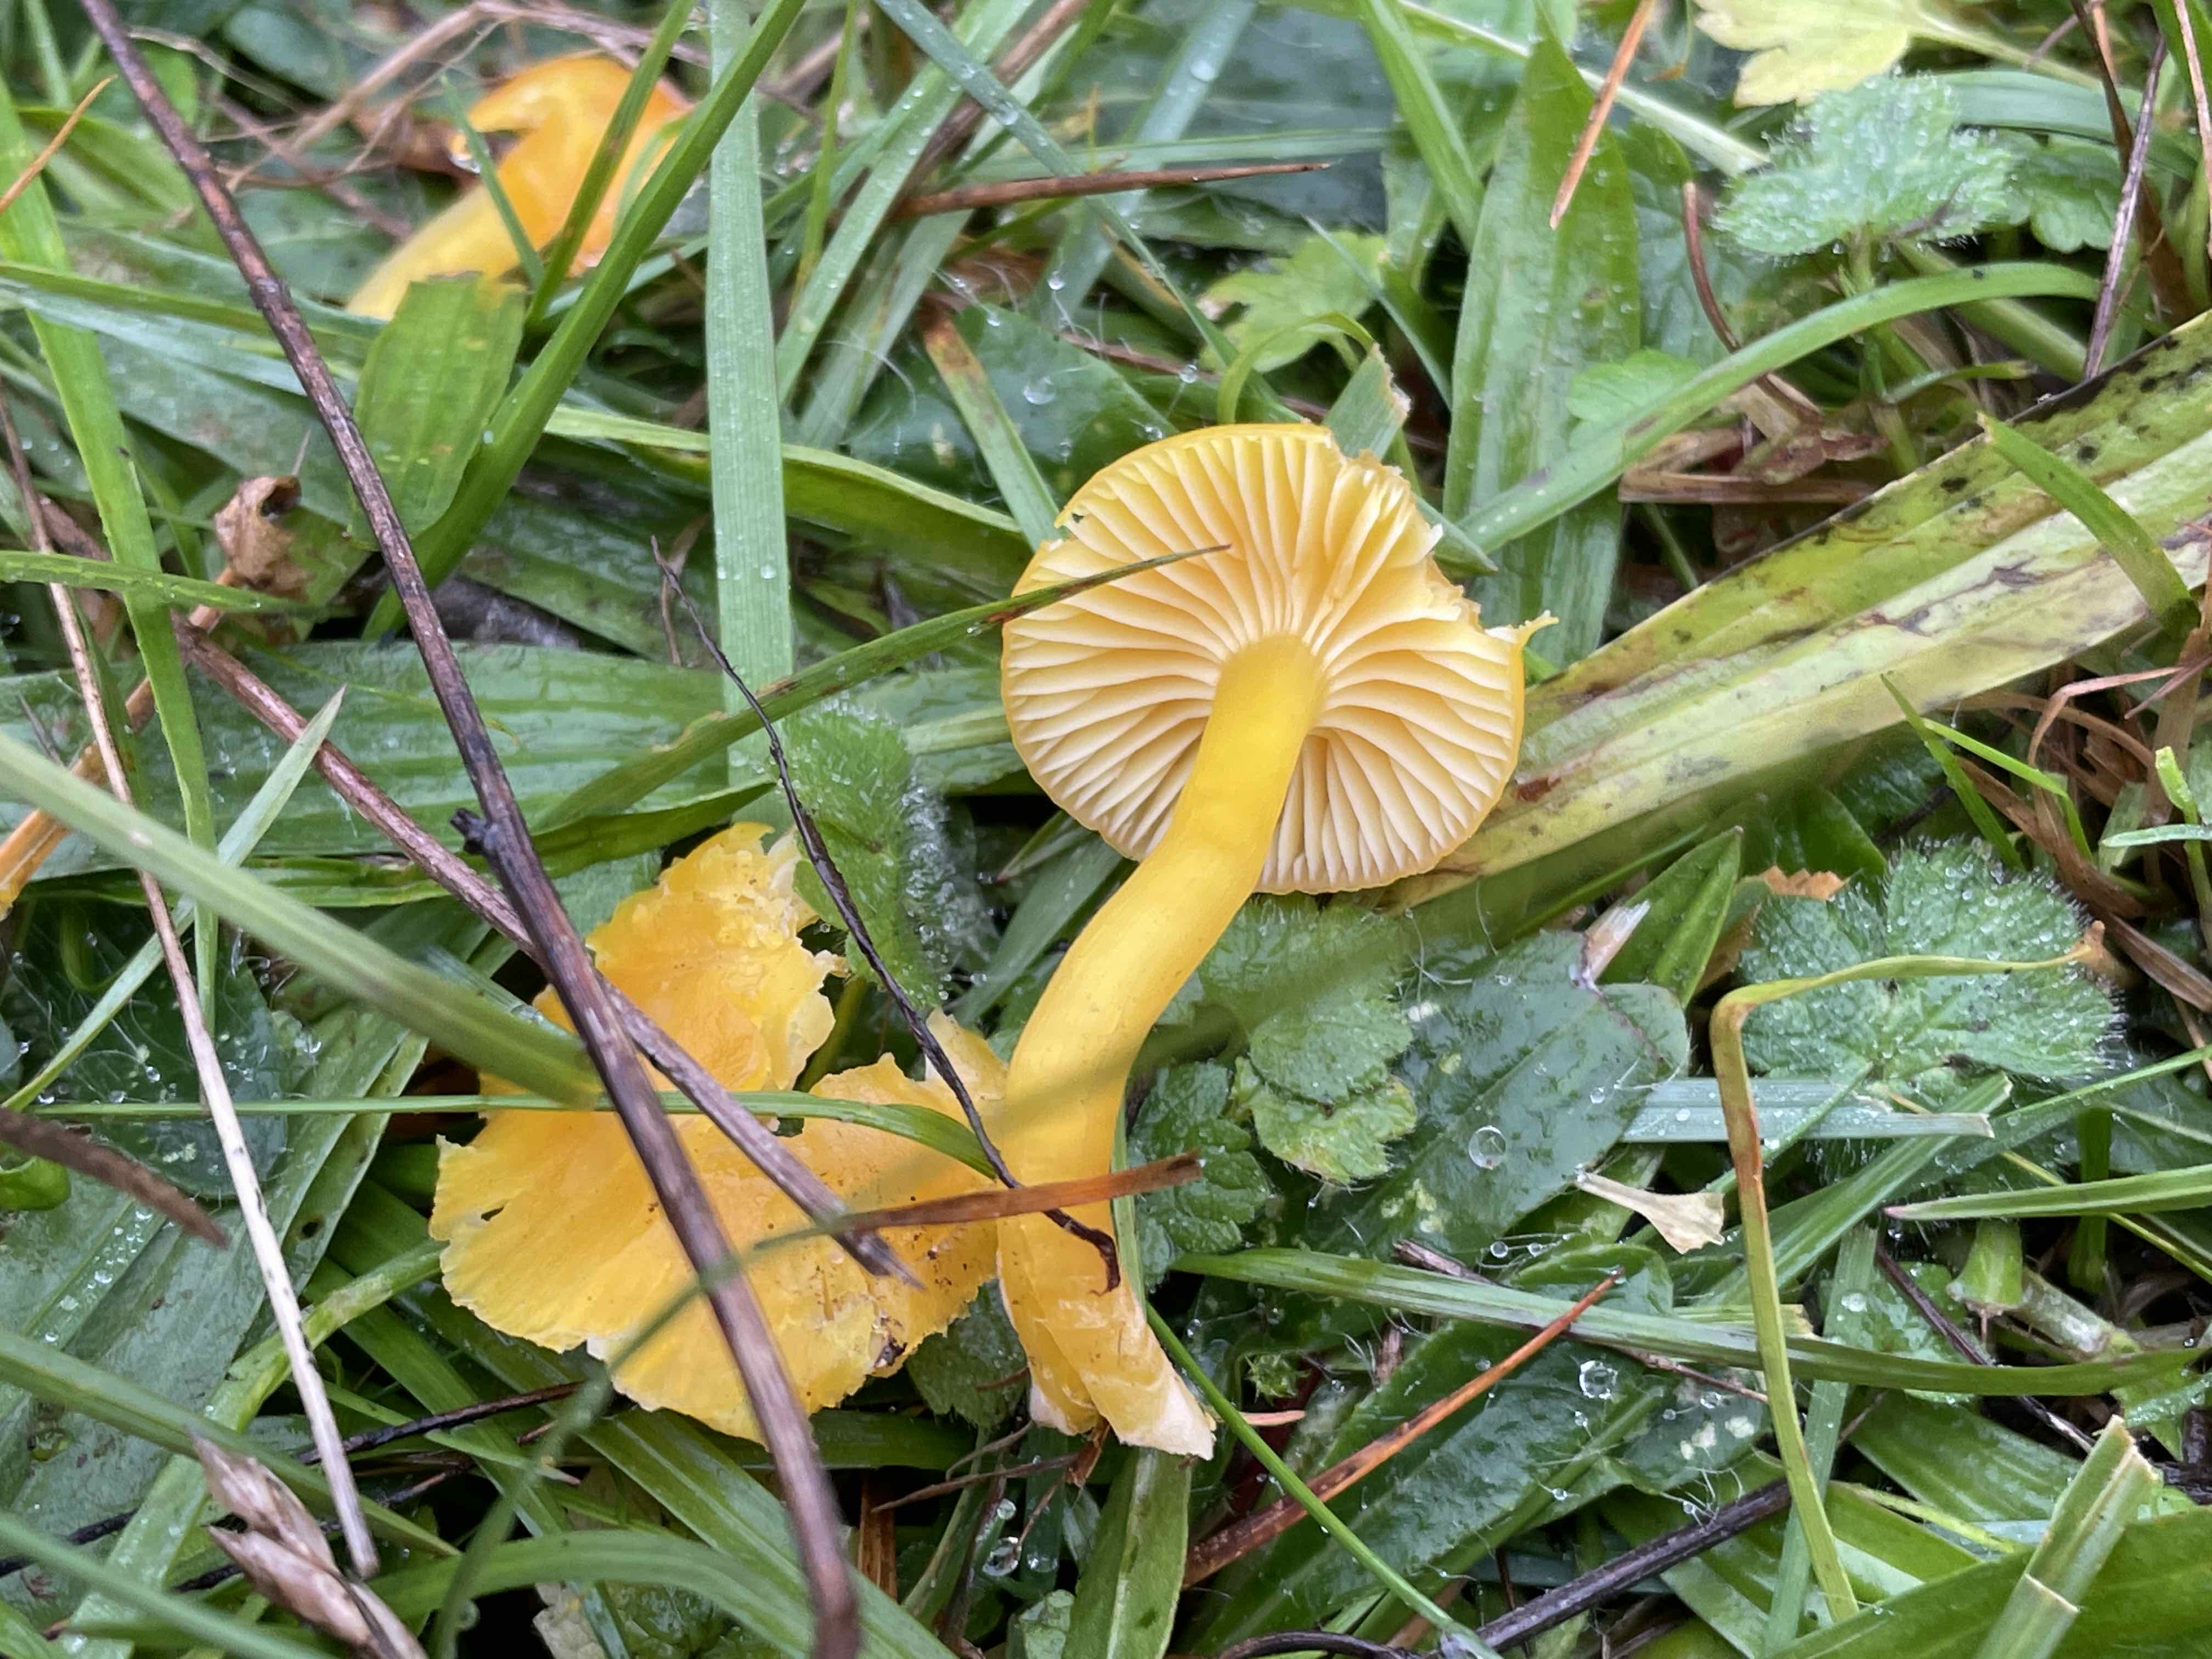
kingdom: Fungi
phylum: Basidiomycota
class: Agaricomycetes
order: Agaricales
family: Hygrophoraceae
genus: Hygrocybe
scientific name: Hygrocybe ceracea
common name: voksgul vokshat
